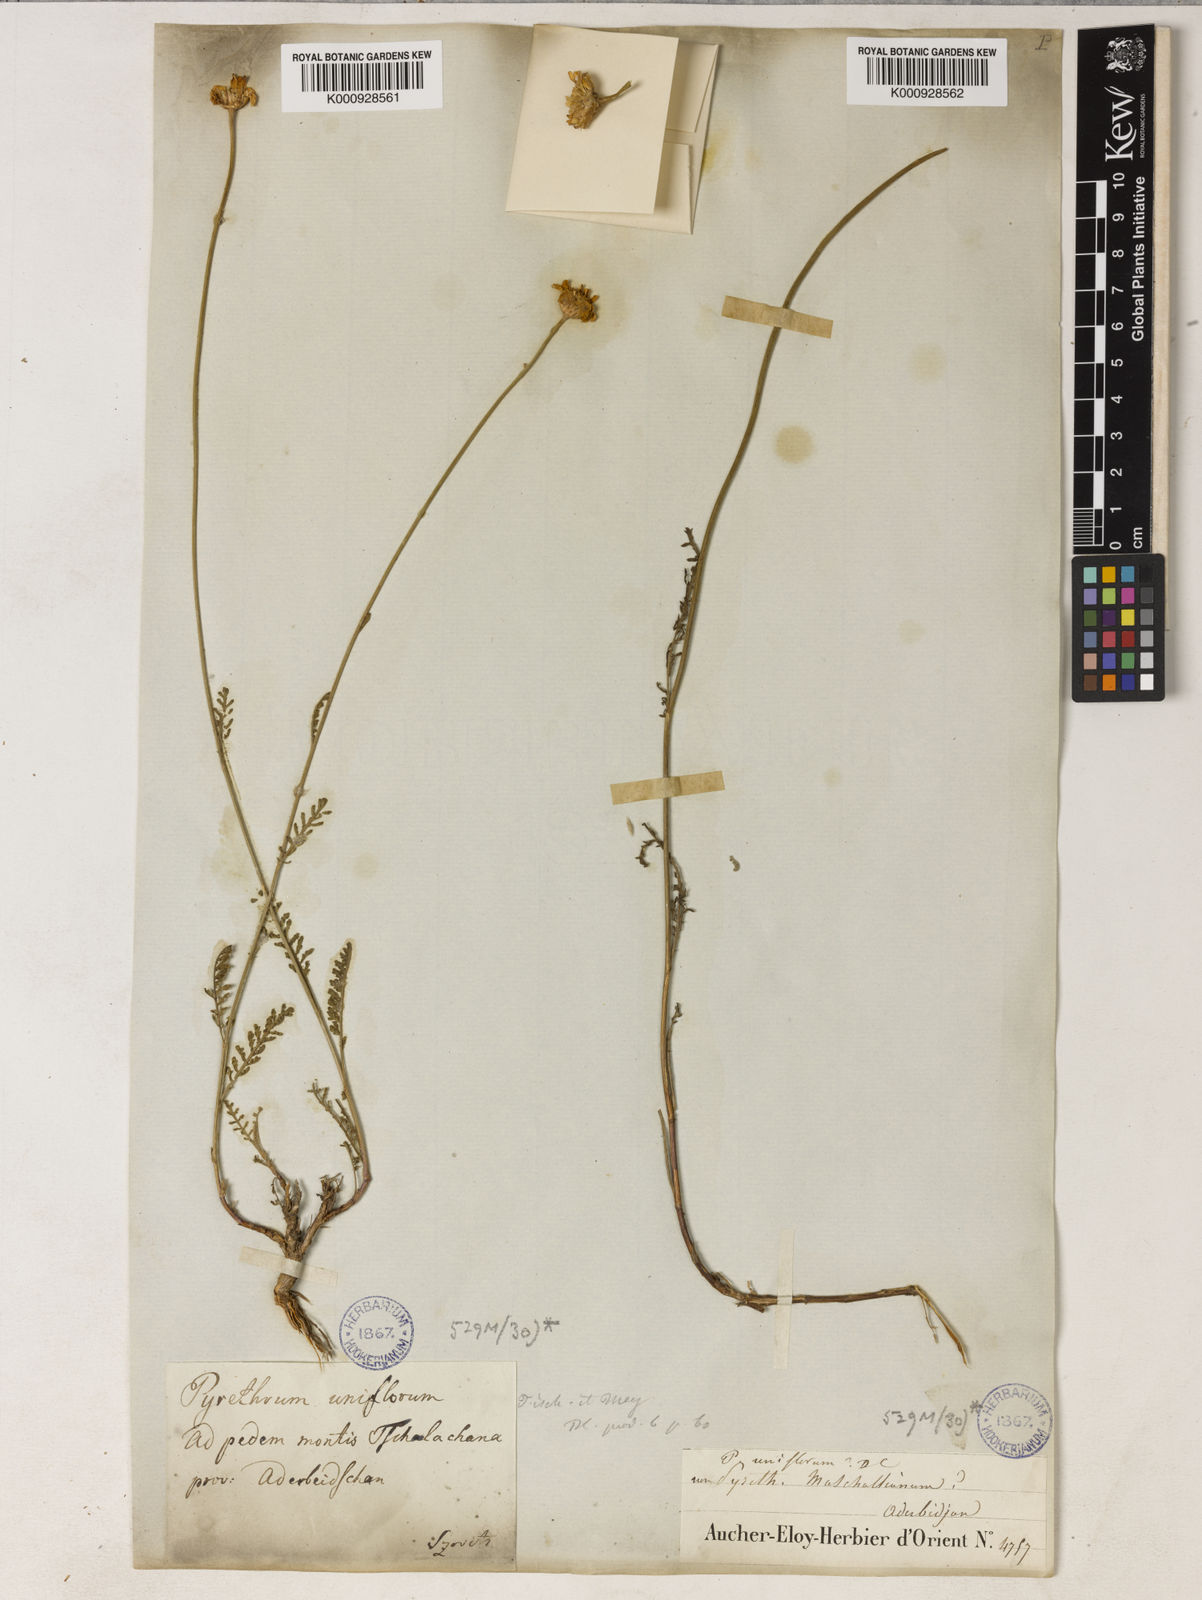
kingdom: Plantae
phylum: Tracheophyta
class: Magnoliopsida
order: Asterales
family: Asteraceae
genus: Tanacetum
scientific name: Tanacetum uniflorum
